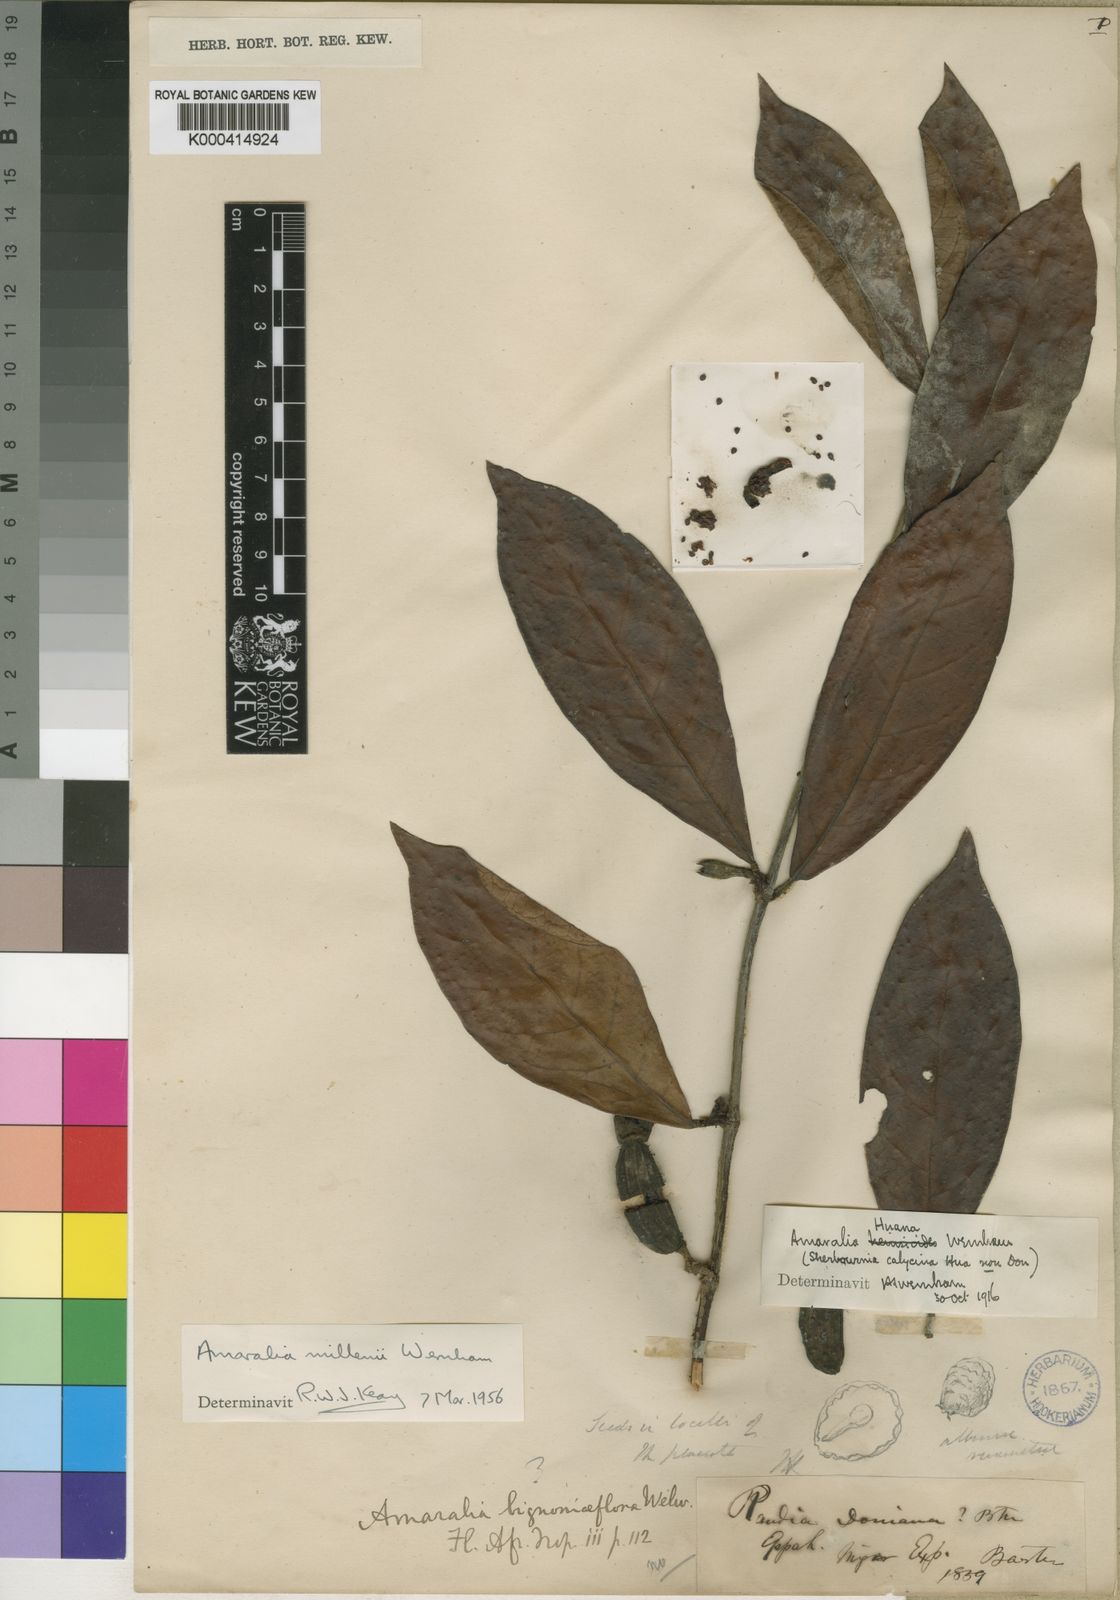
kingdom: Plantae
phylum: Tracheophyta
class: Magnoliopsida
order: Gentianales
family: Rubiaceae
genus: Sherbournia
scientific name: Sherbournia millenii
